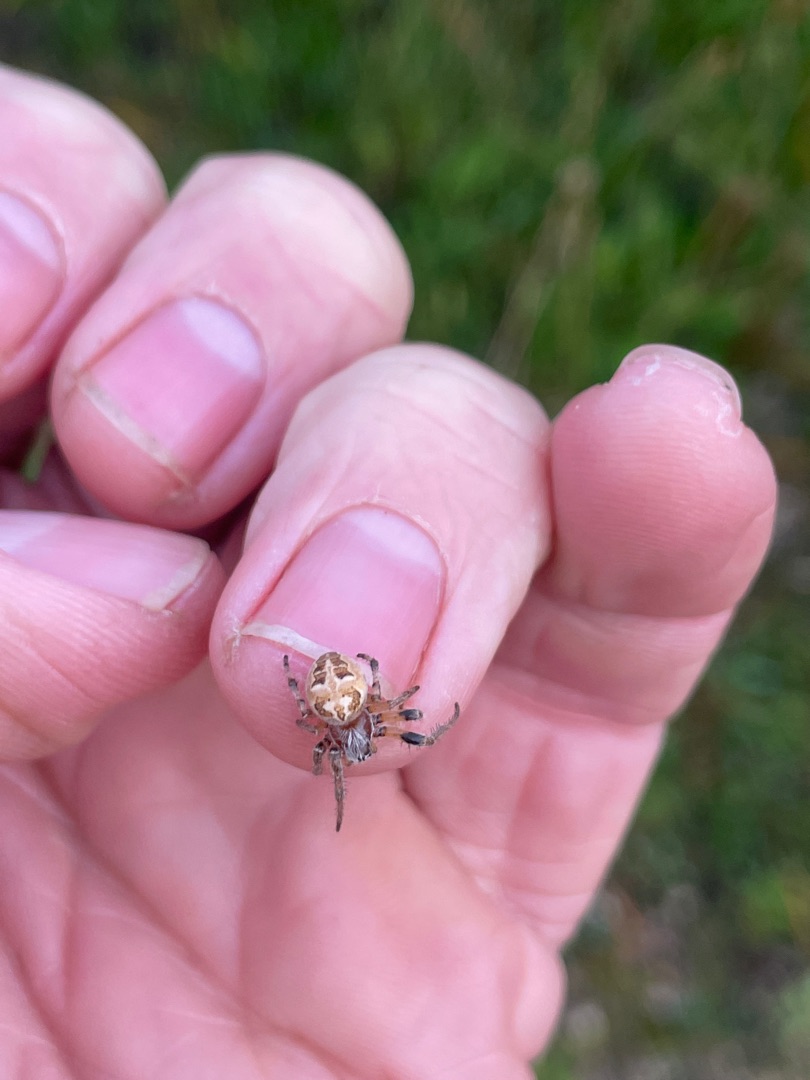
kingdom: Animalia
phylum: Arthropoda
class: Arachnida
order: Araneae
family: Araneidae
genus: Larinioides
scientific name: Larinioides cornutus
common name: Sivhjulspinder
